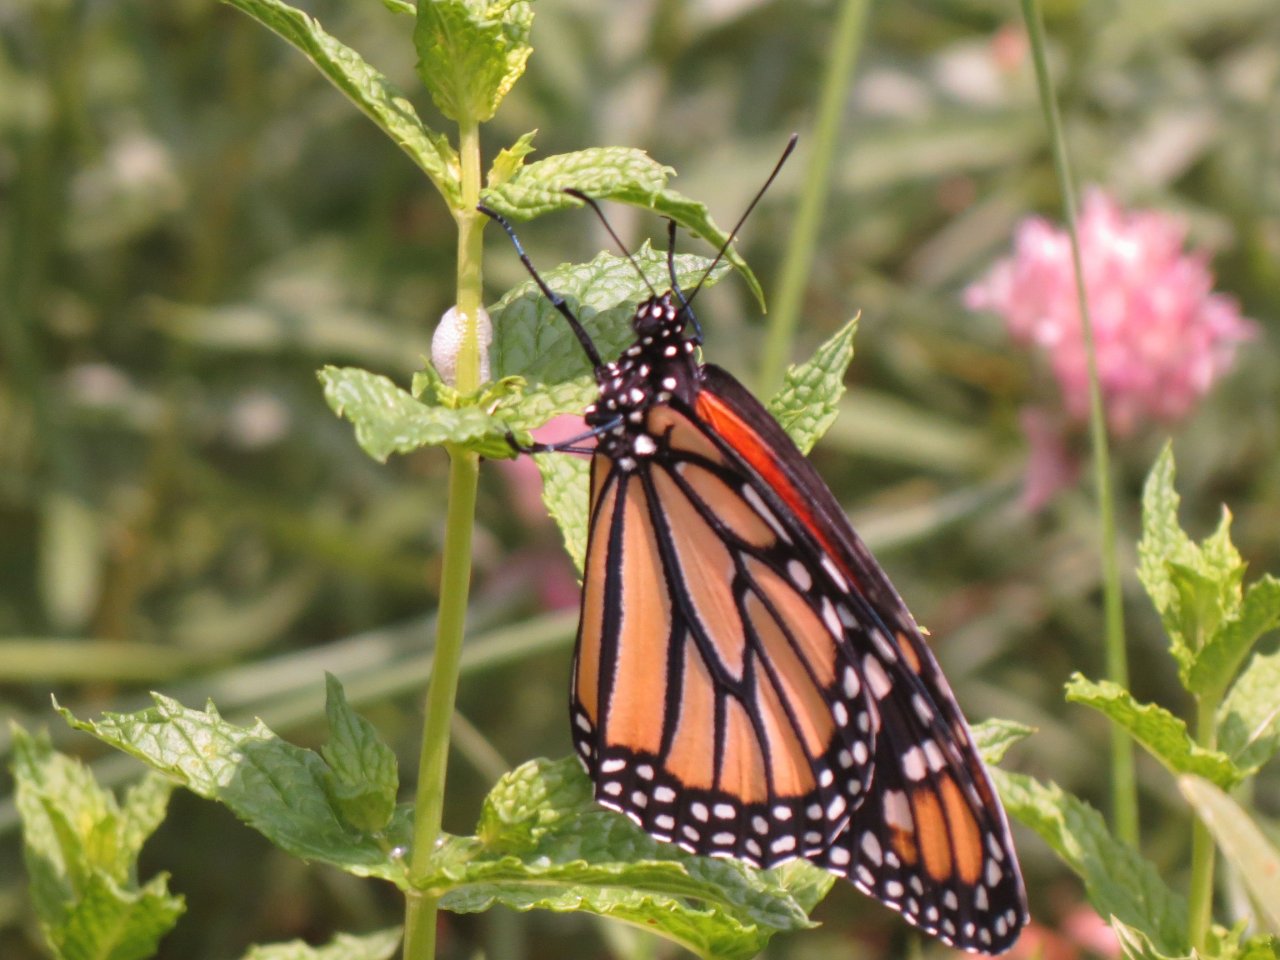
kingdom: Animalia
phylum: Arthropoda
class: Insecta
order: Lepidoptera
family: Nymphalidae
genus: Danaus
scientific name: Danaus plexippus
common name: Monarch
